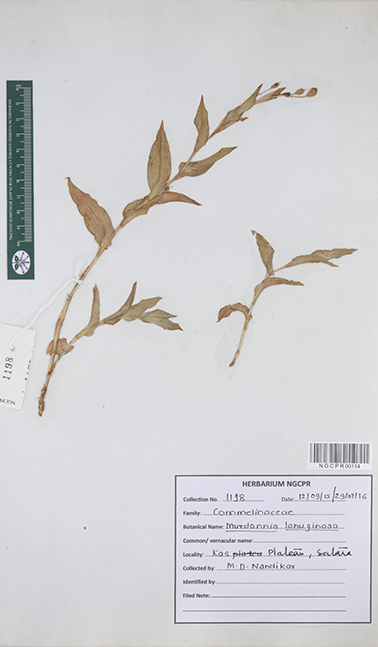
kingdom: Plantae
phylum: Tracheophyta
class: Liliopsida
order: Commelinales
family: Commelinaceae
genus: Murdannia
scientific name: Murdannia lanuginosa
